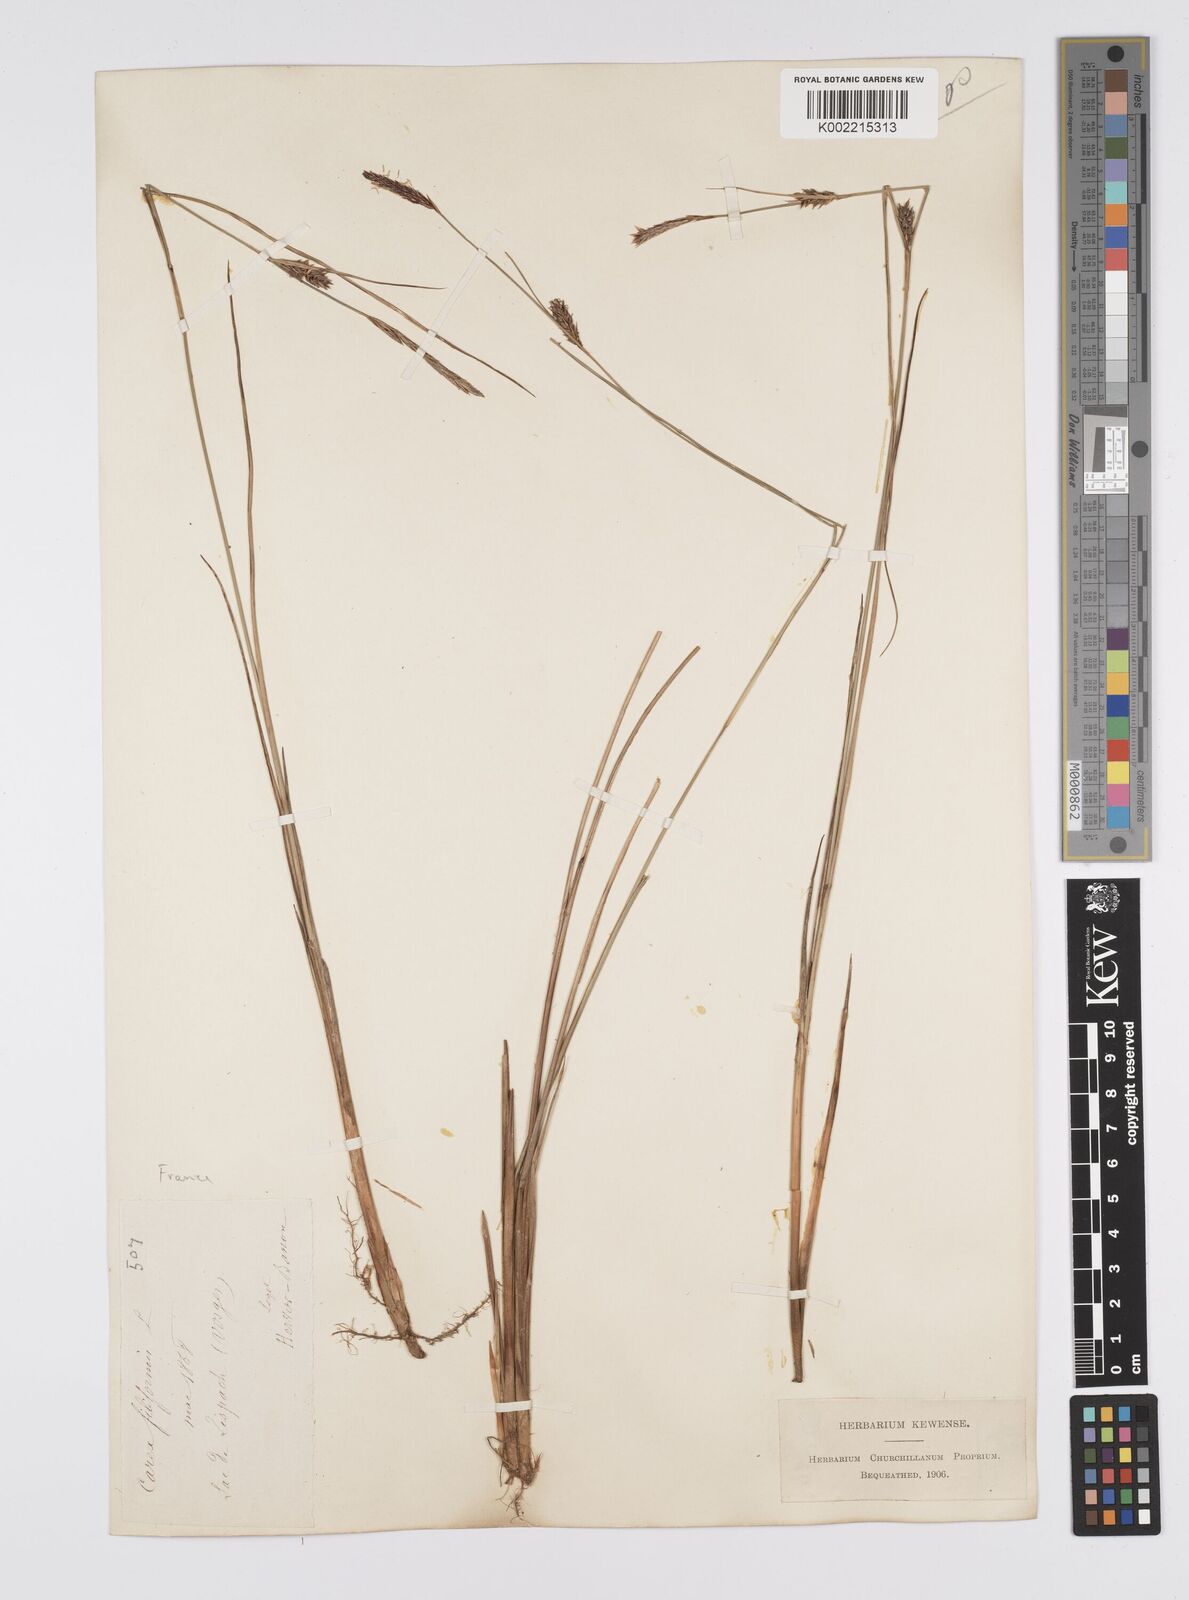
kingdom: Plantae
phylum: Tracheophyta
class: Liliopsida
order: Poales
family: Cyperaceae
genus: Carex
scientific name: Carex lasiocarpa
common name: Slender sedge
